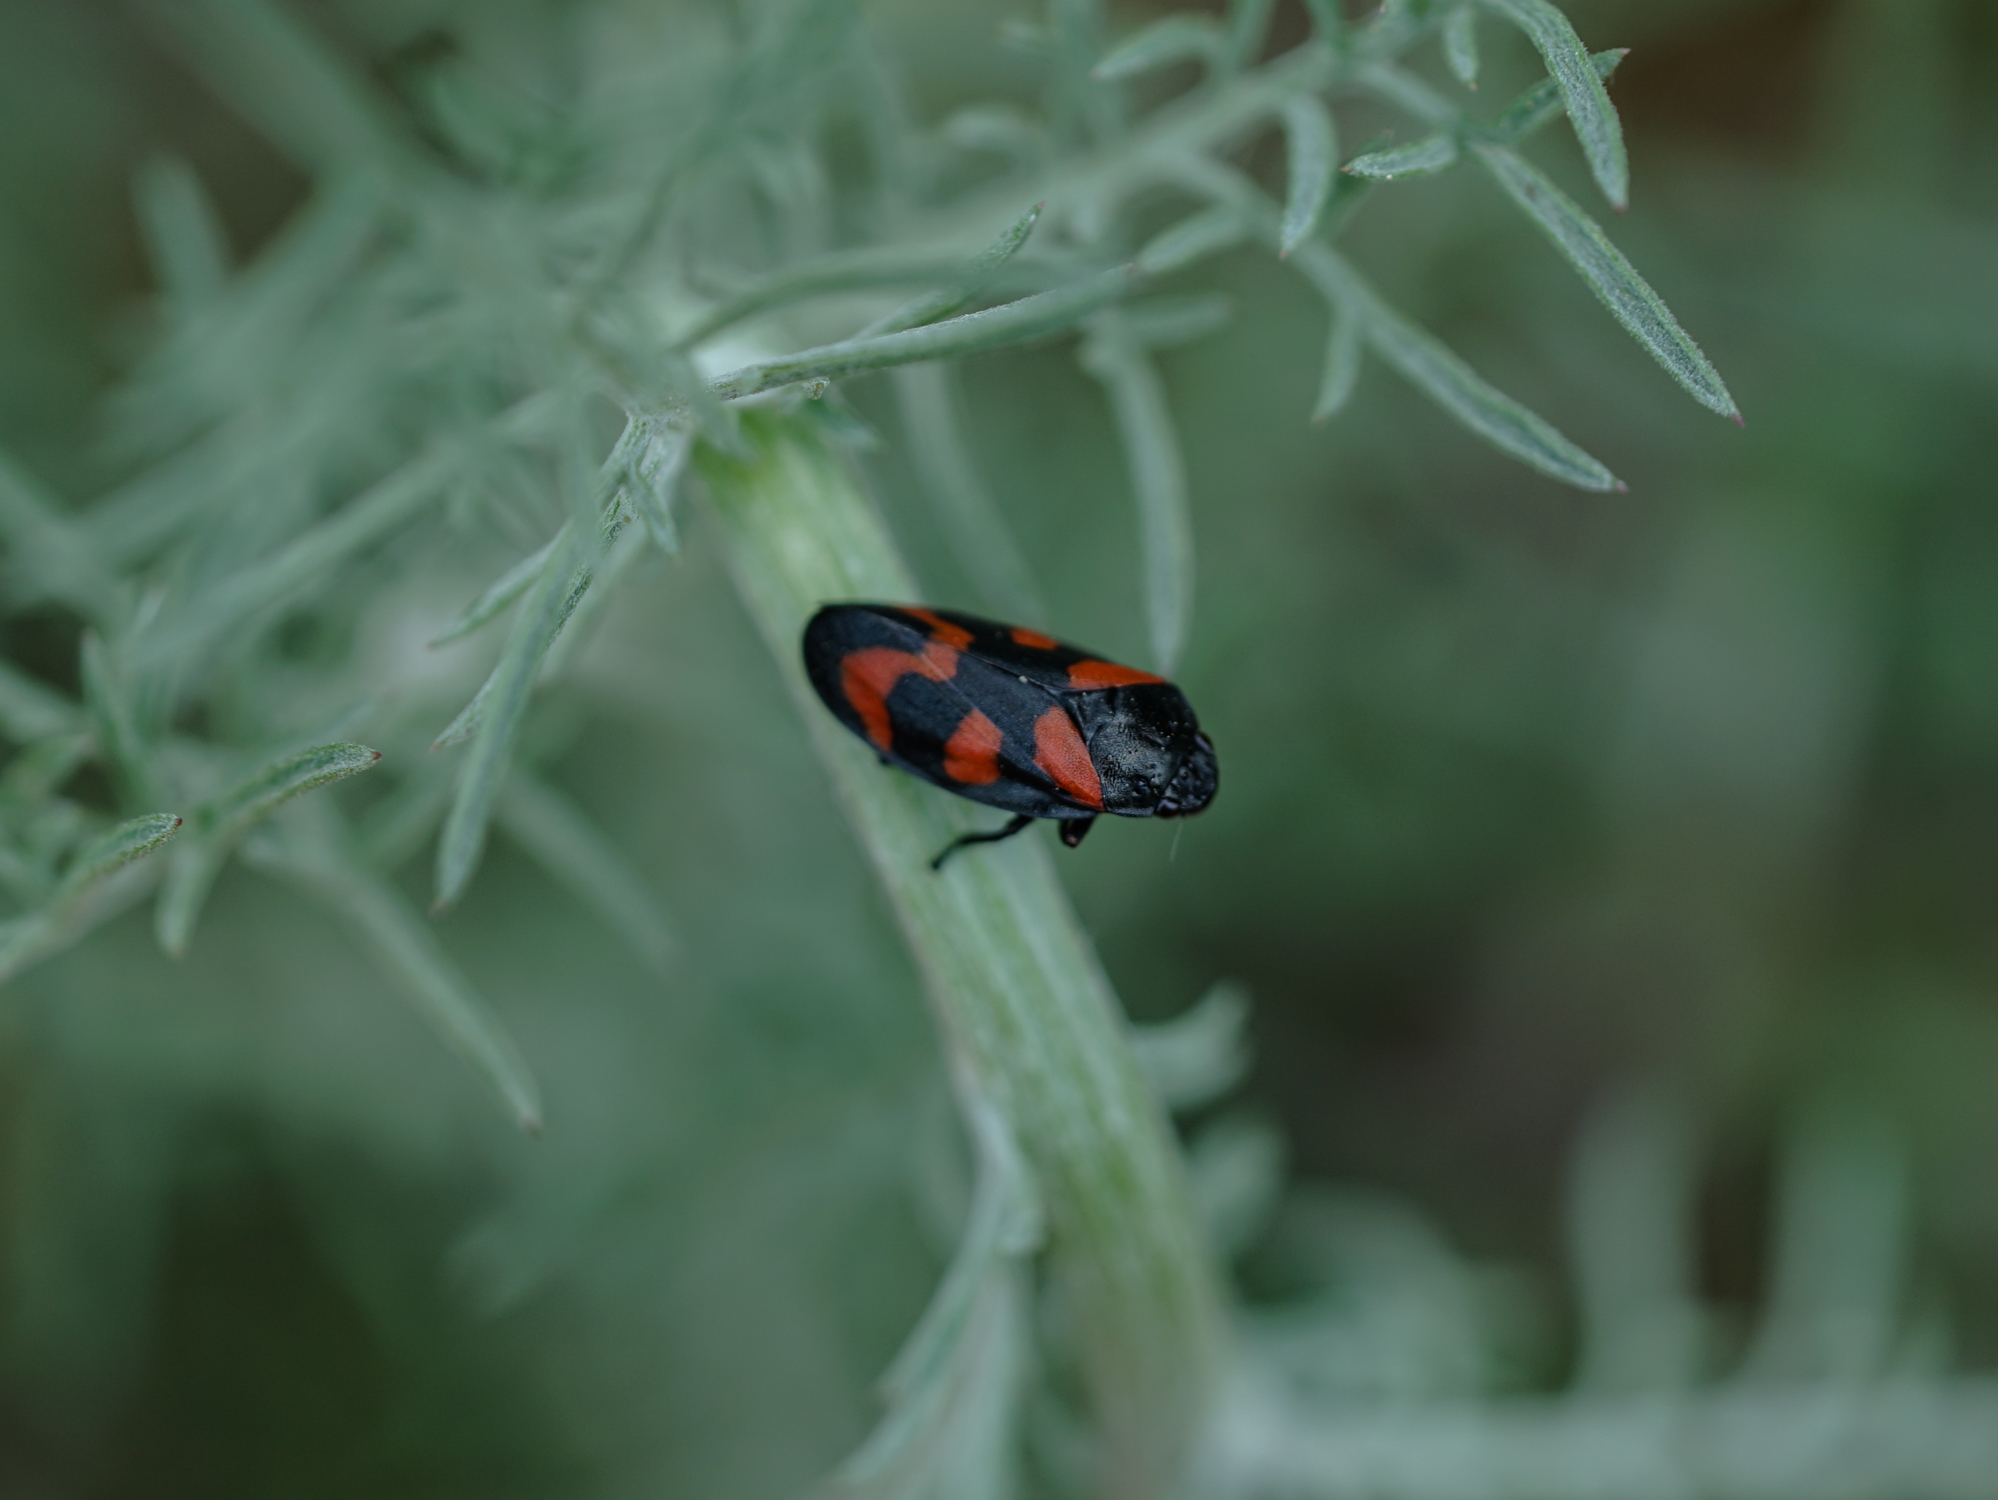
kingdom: Animalia
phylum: Arthropoda
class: Insecta
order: Hemiptera
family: Cercopidae
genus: Cercopis
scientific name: Cercopis vulnerata
